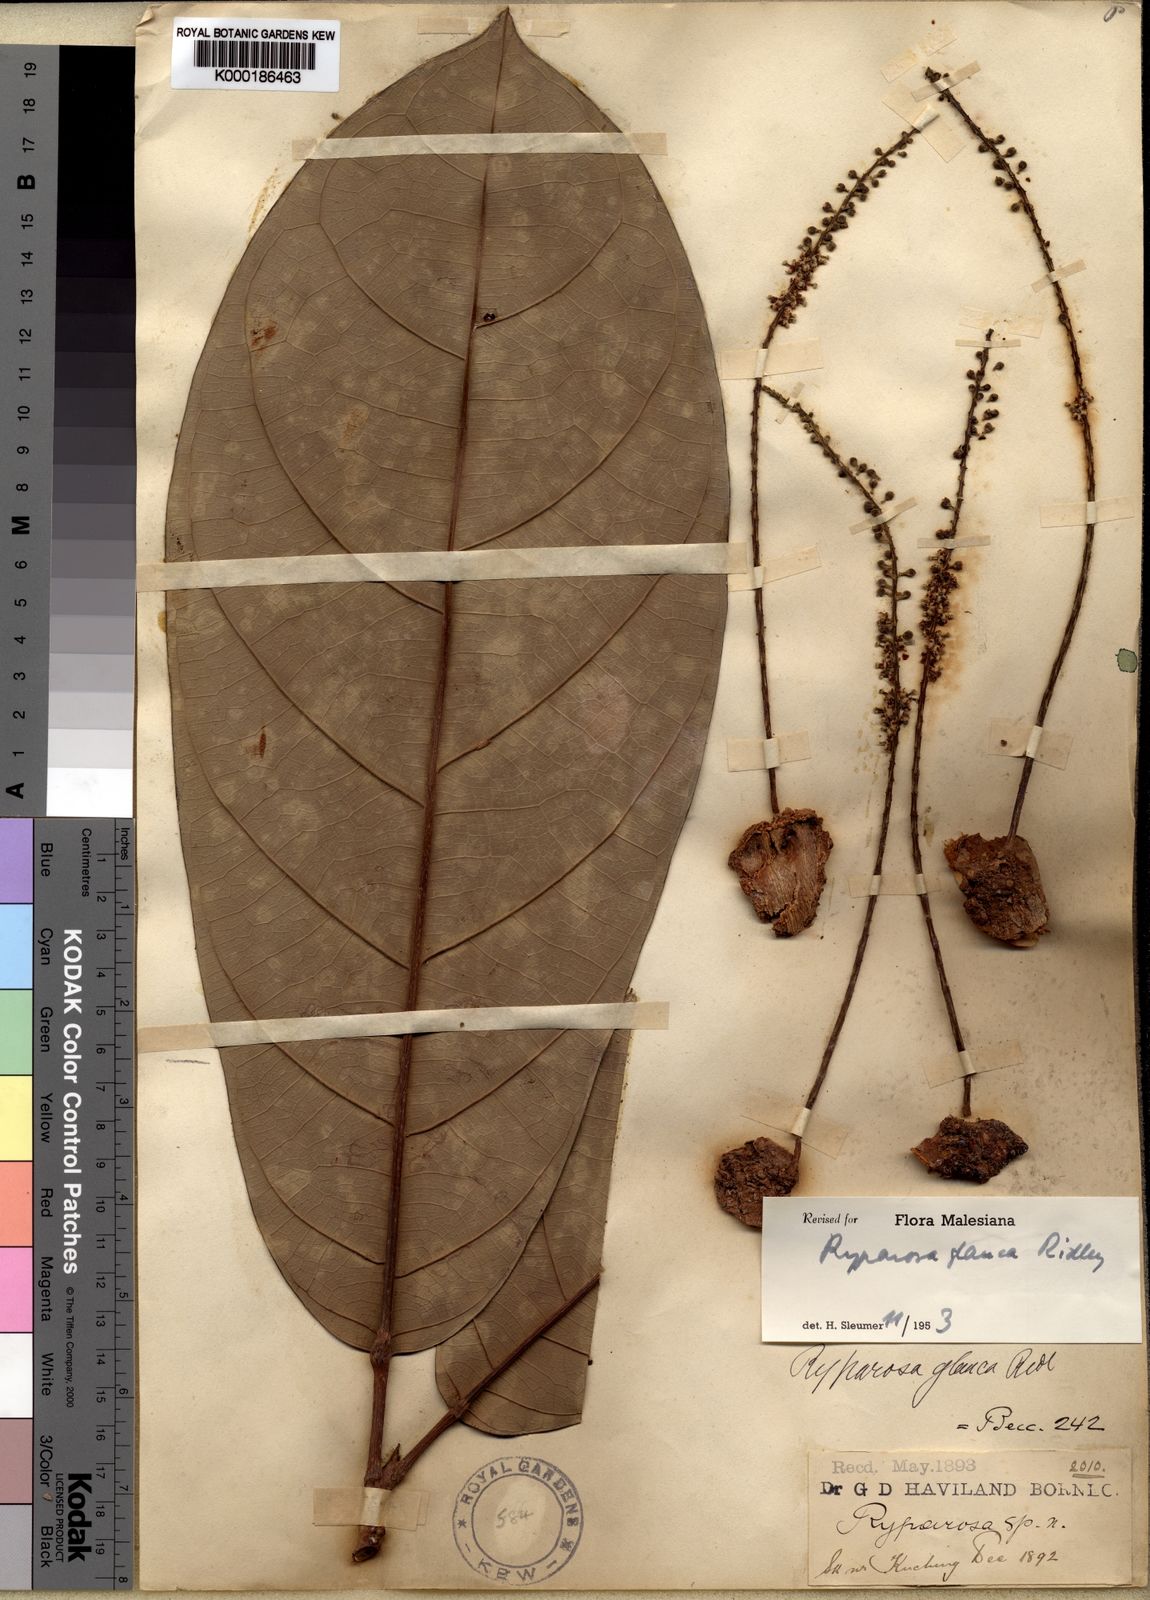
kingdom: Plantae
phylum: Tracheophyta
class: Magnoliopsida
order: Malpighiales
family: Achariaceae
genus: Ryparosa
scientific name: Ryparosa glauca
